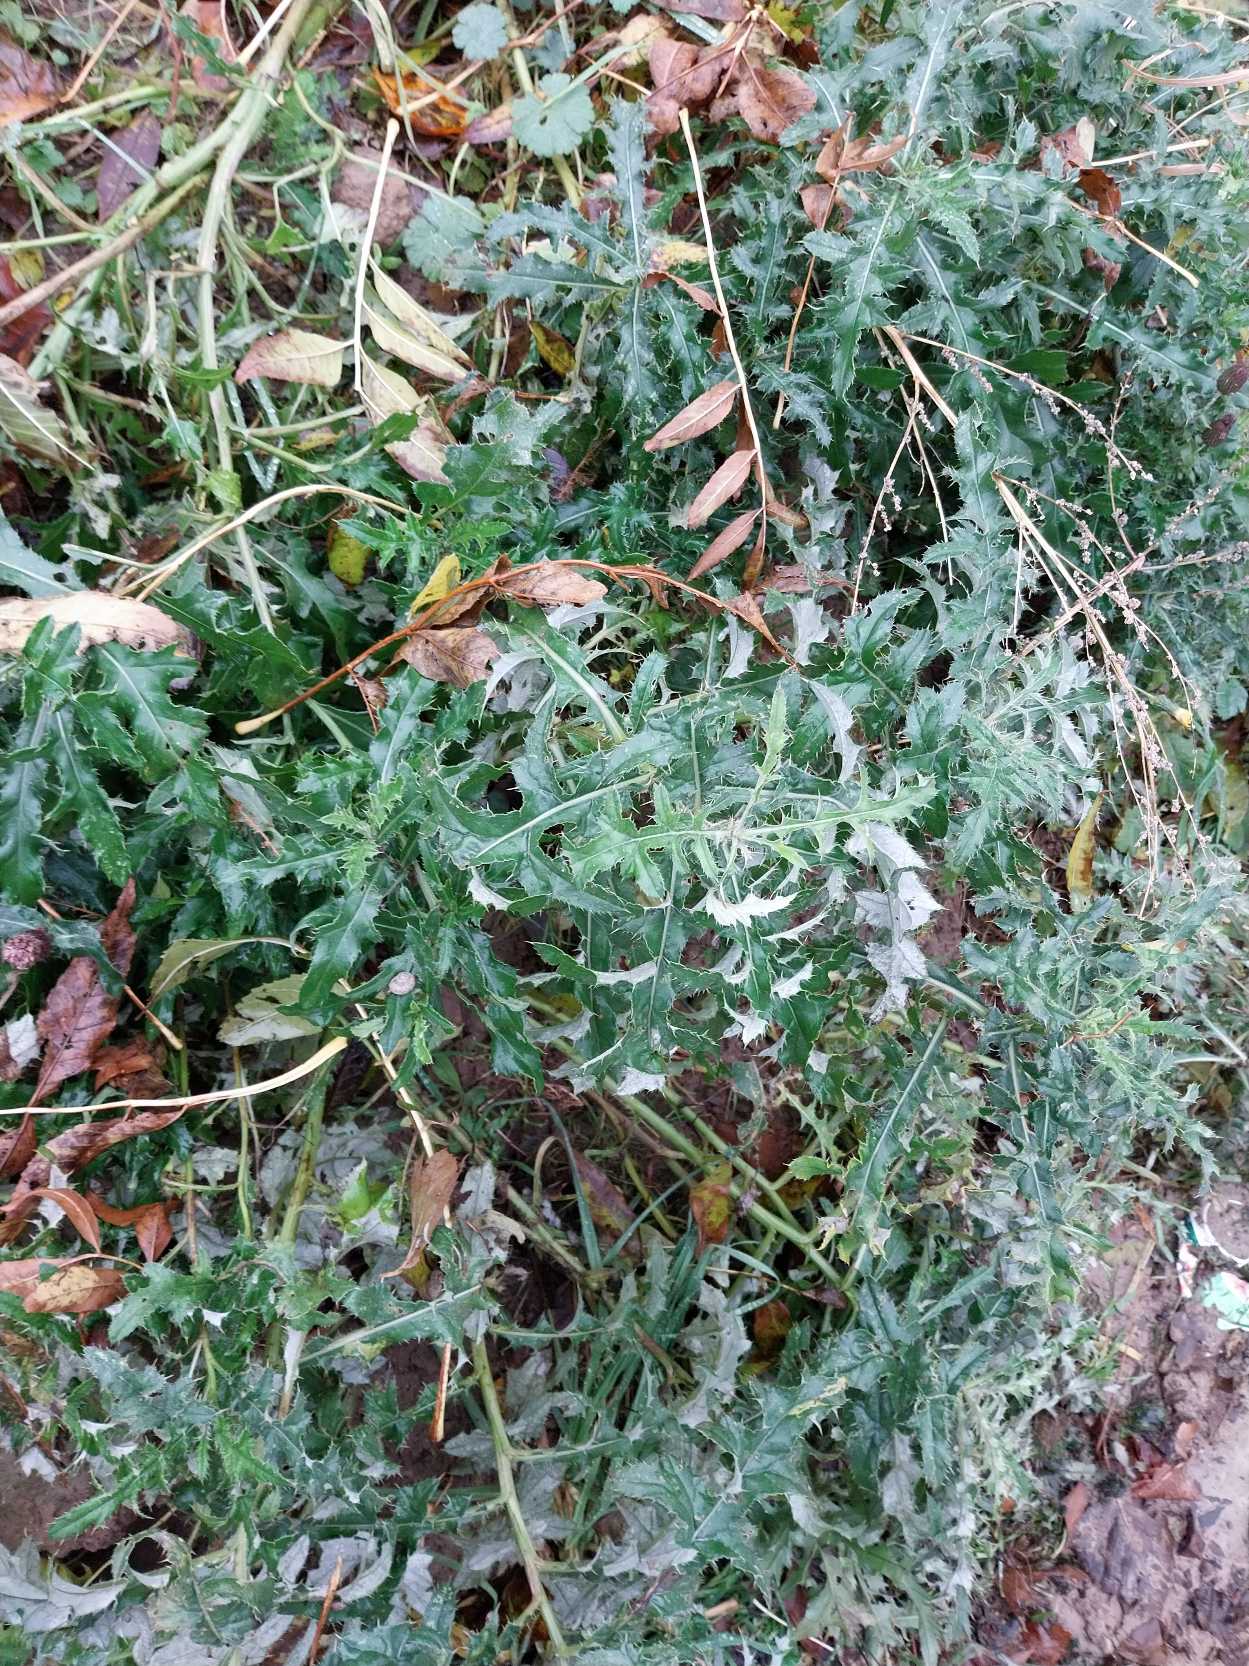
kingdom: Plantae
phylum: Tracheophyta
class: Magnoliopsida
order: Asterales
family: Asteraceae
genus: Cirsium
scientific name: Cirsium arvense
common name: Ager-tidsel
